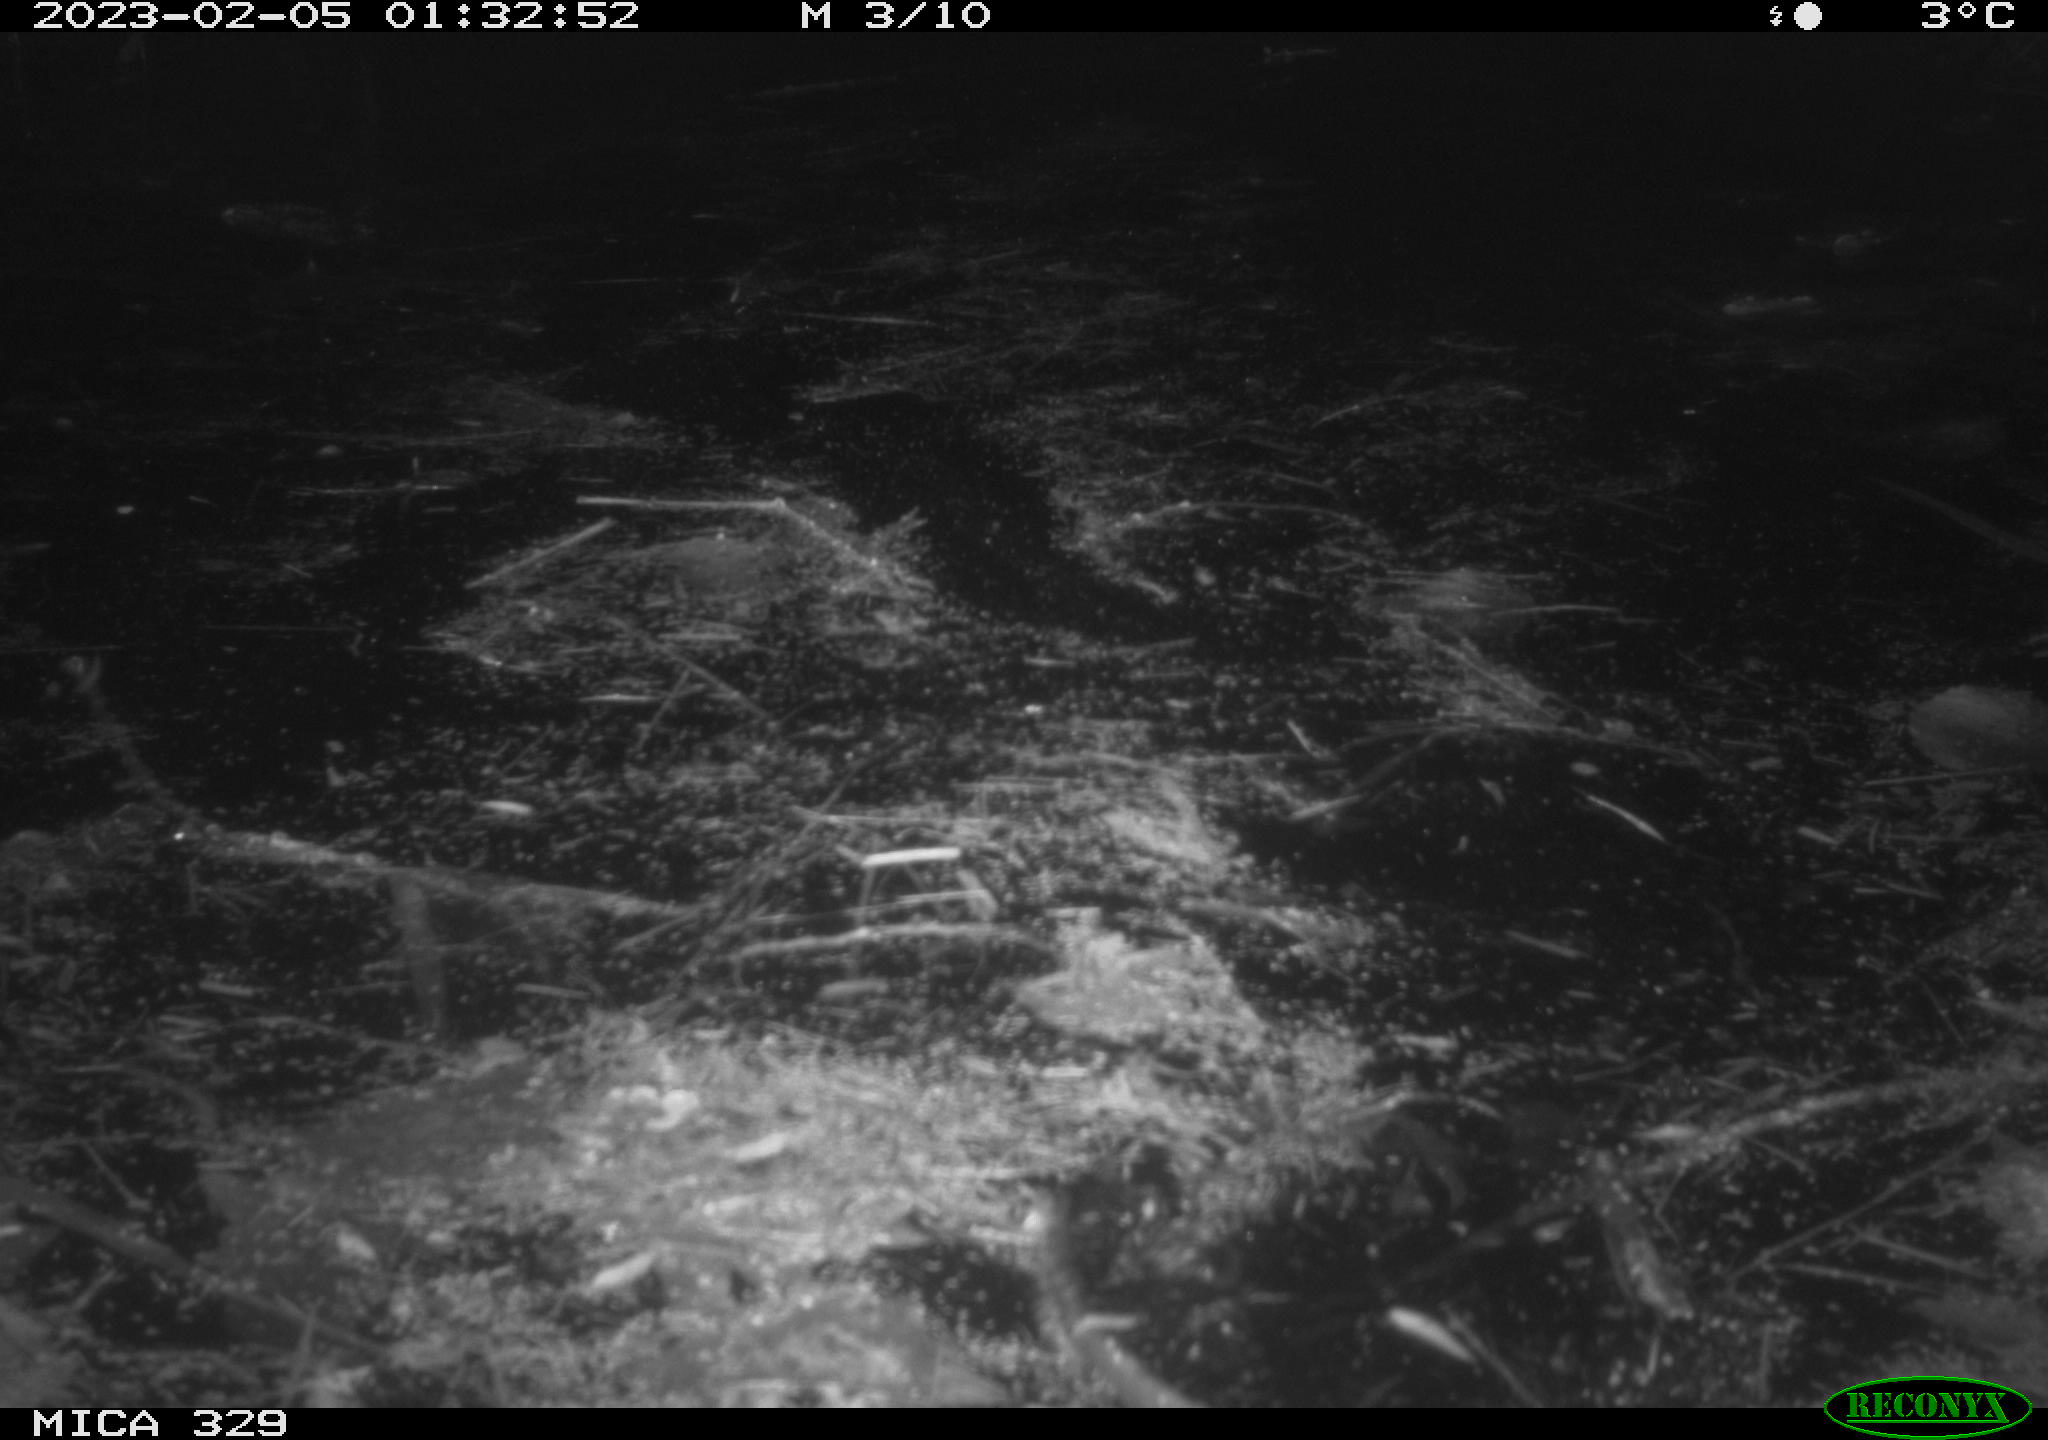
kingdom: Animalia
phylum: Chordata
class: Mammalia
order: Rodentia
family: Cricetidae
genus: Ondatra
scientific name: Ondatra zibethicus
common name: Muskrat
